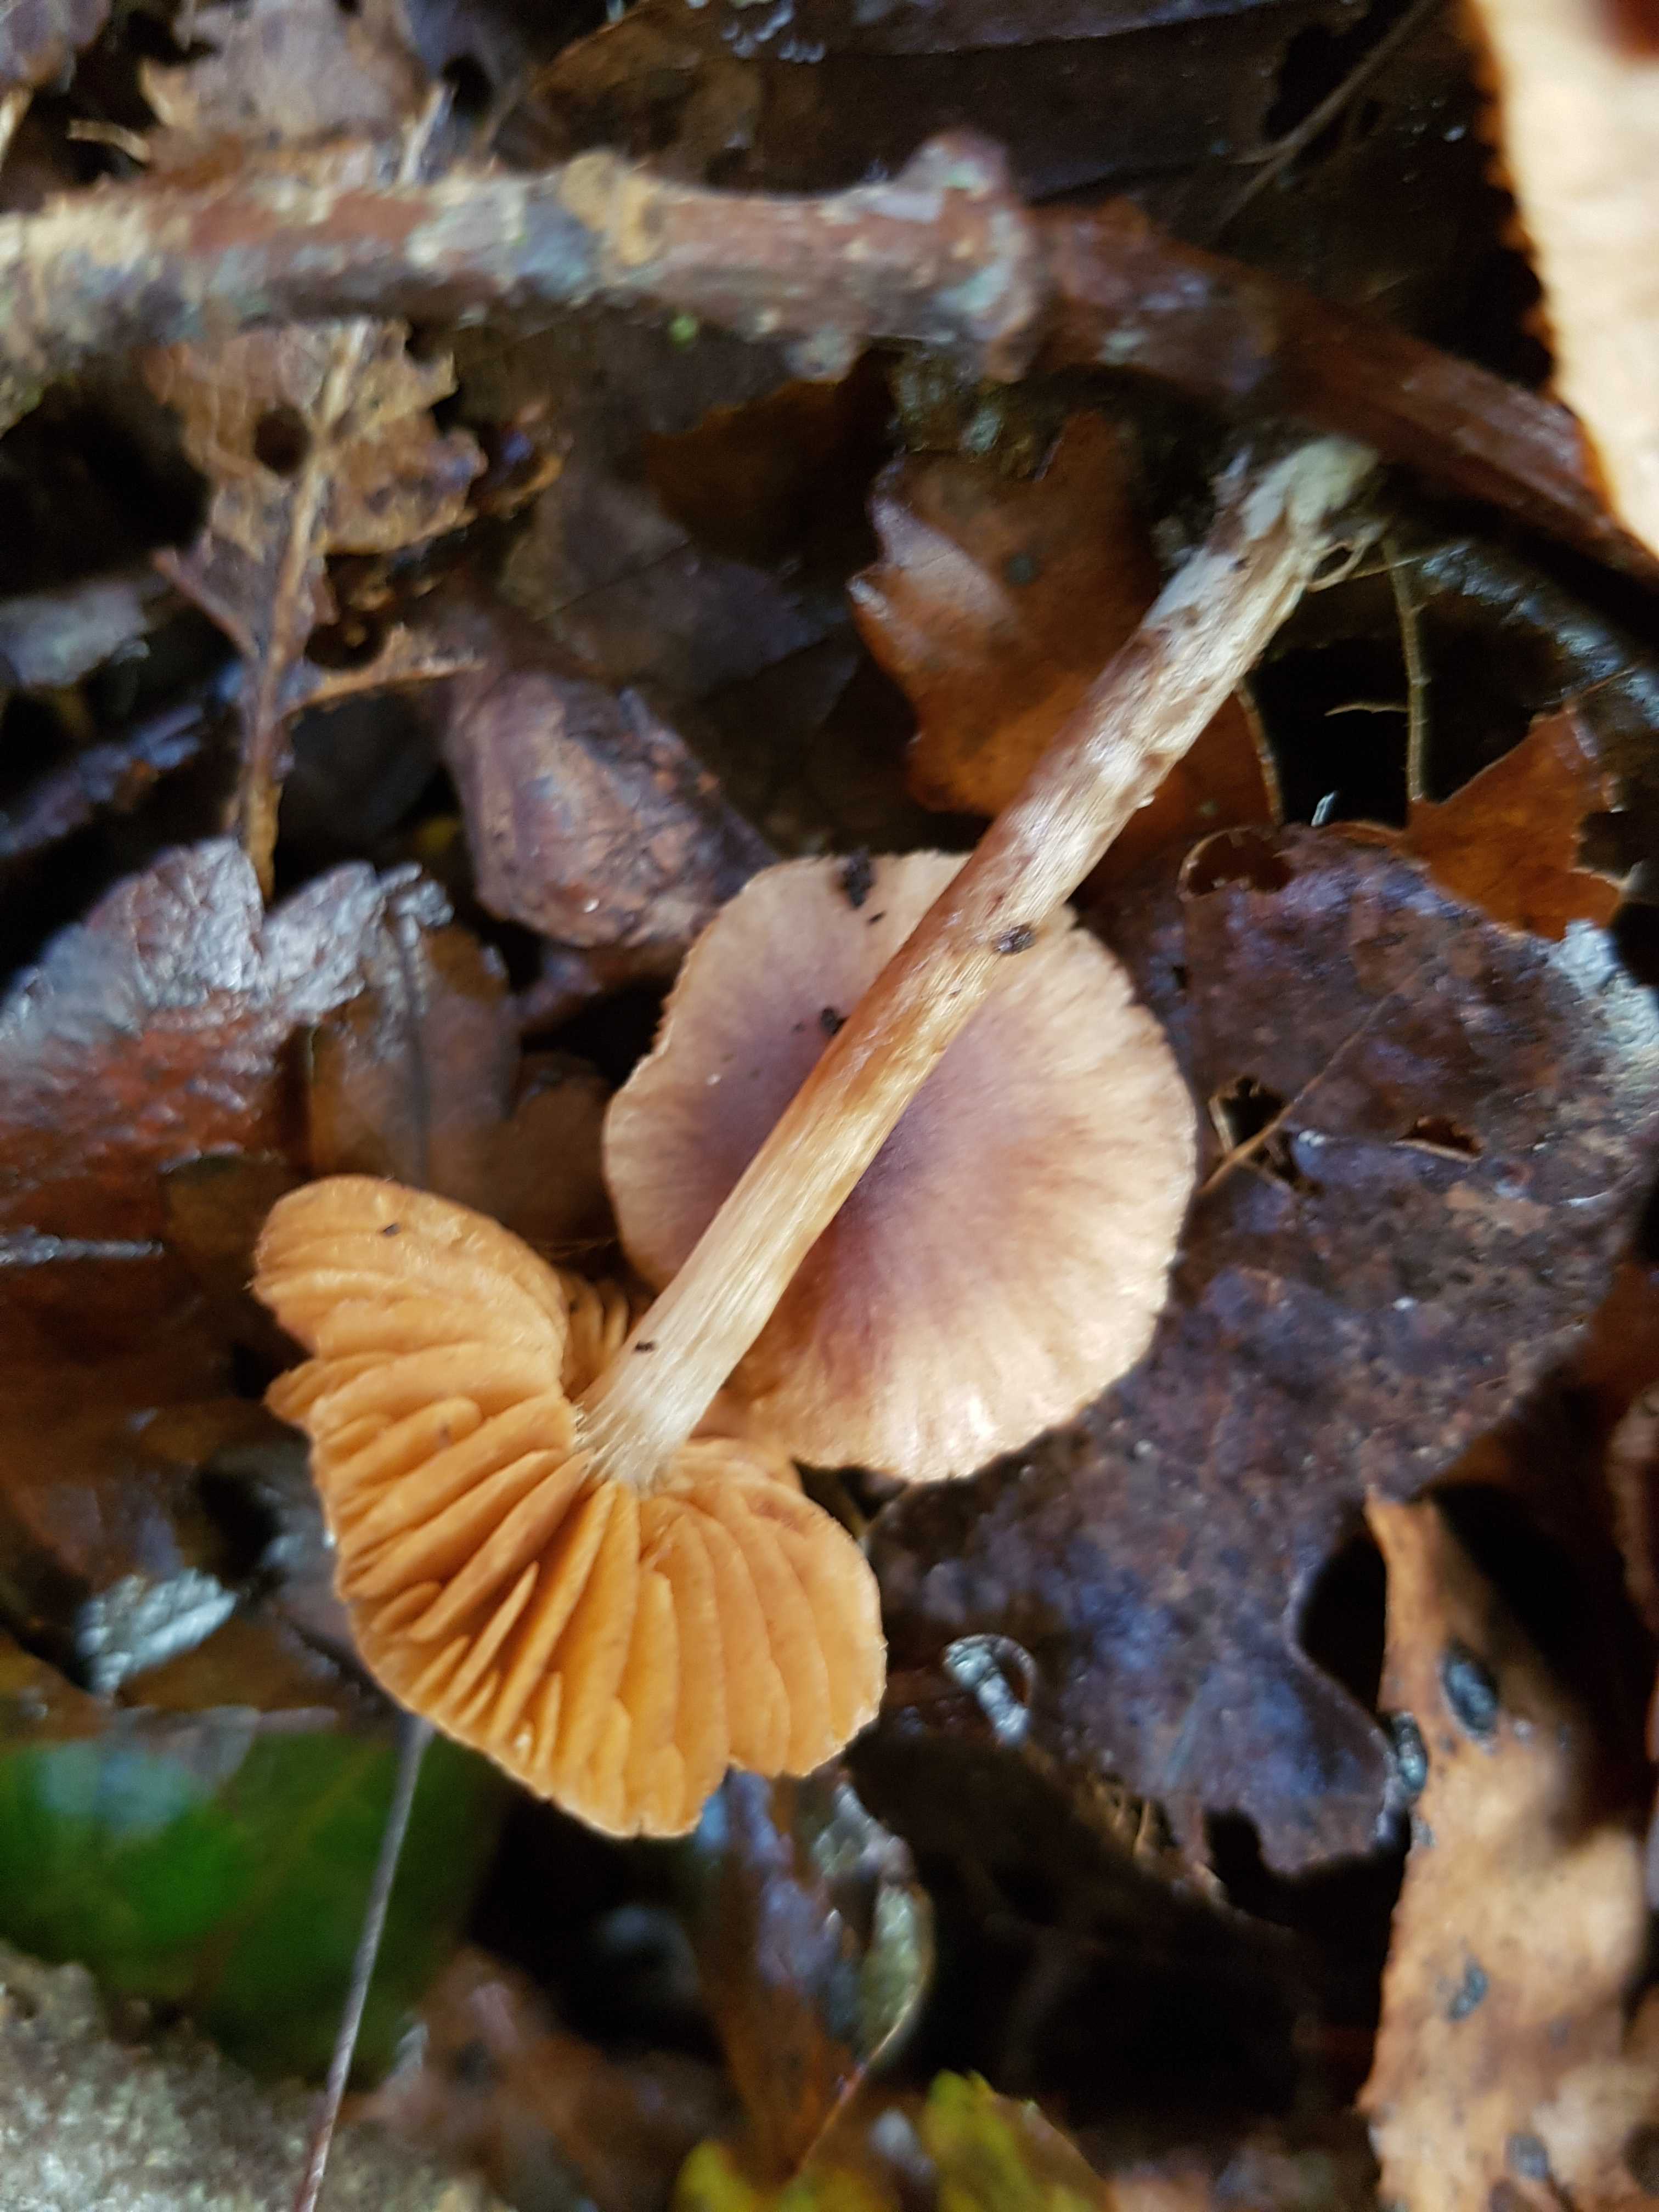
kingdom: Fungi
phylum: Basidiomycota
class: Agaricomycetes
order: Agaricales
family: Cortinariaceae
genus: Cortinarius
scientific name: Cortinarius
